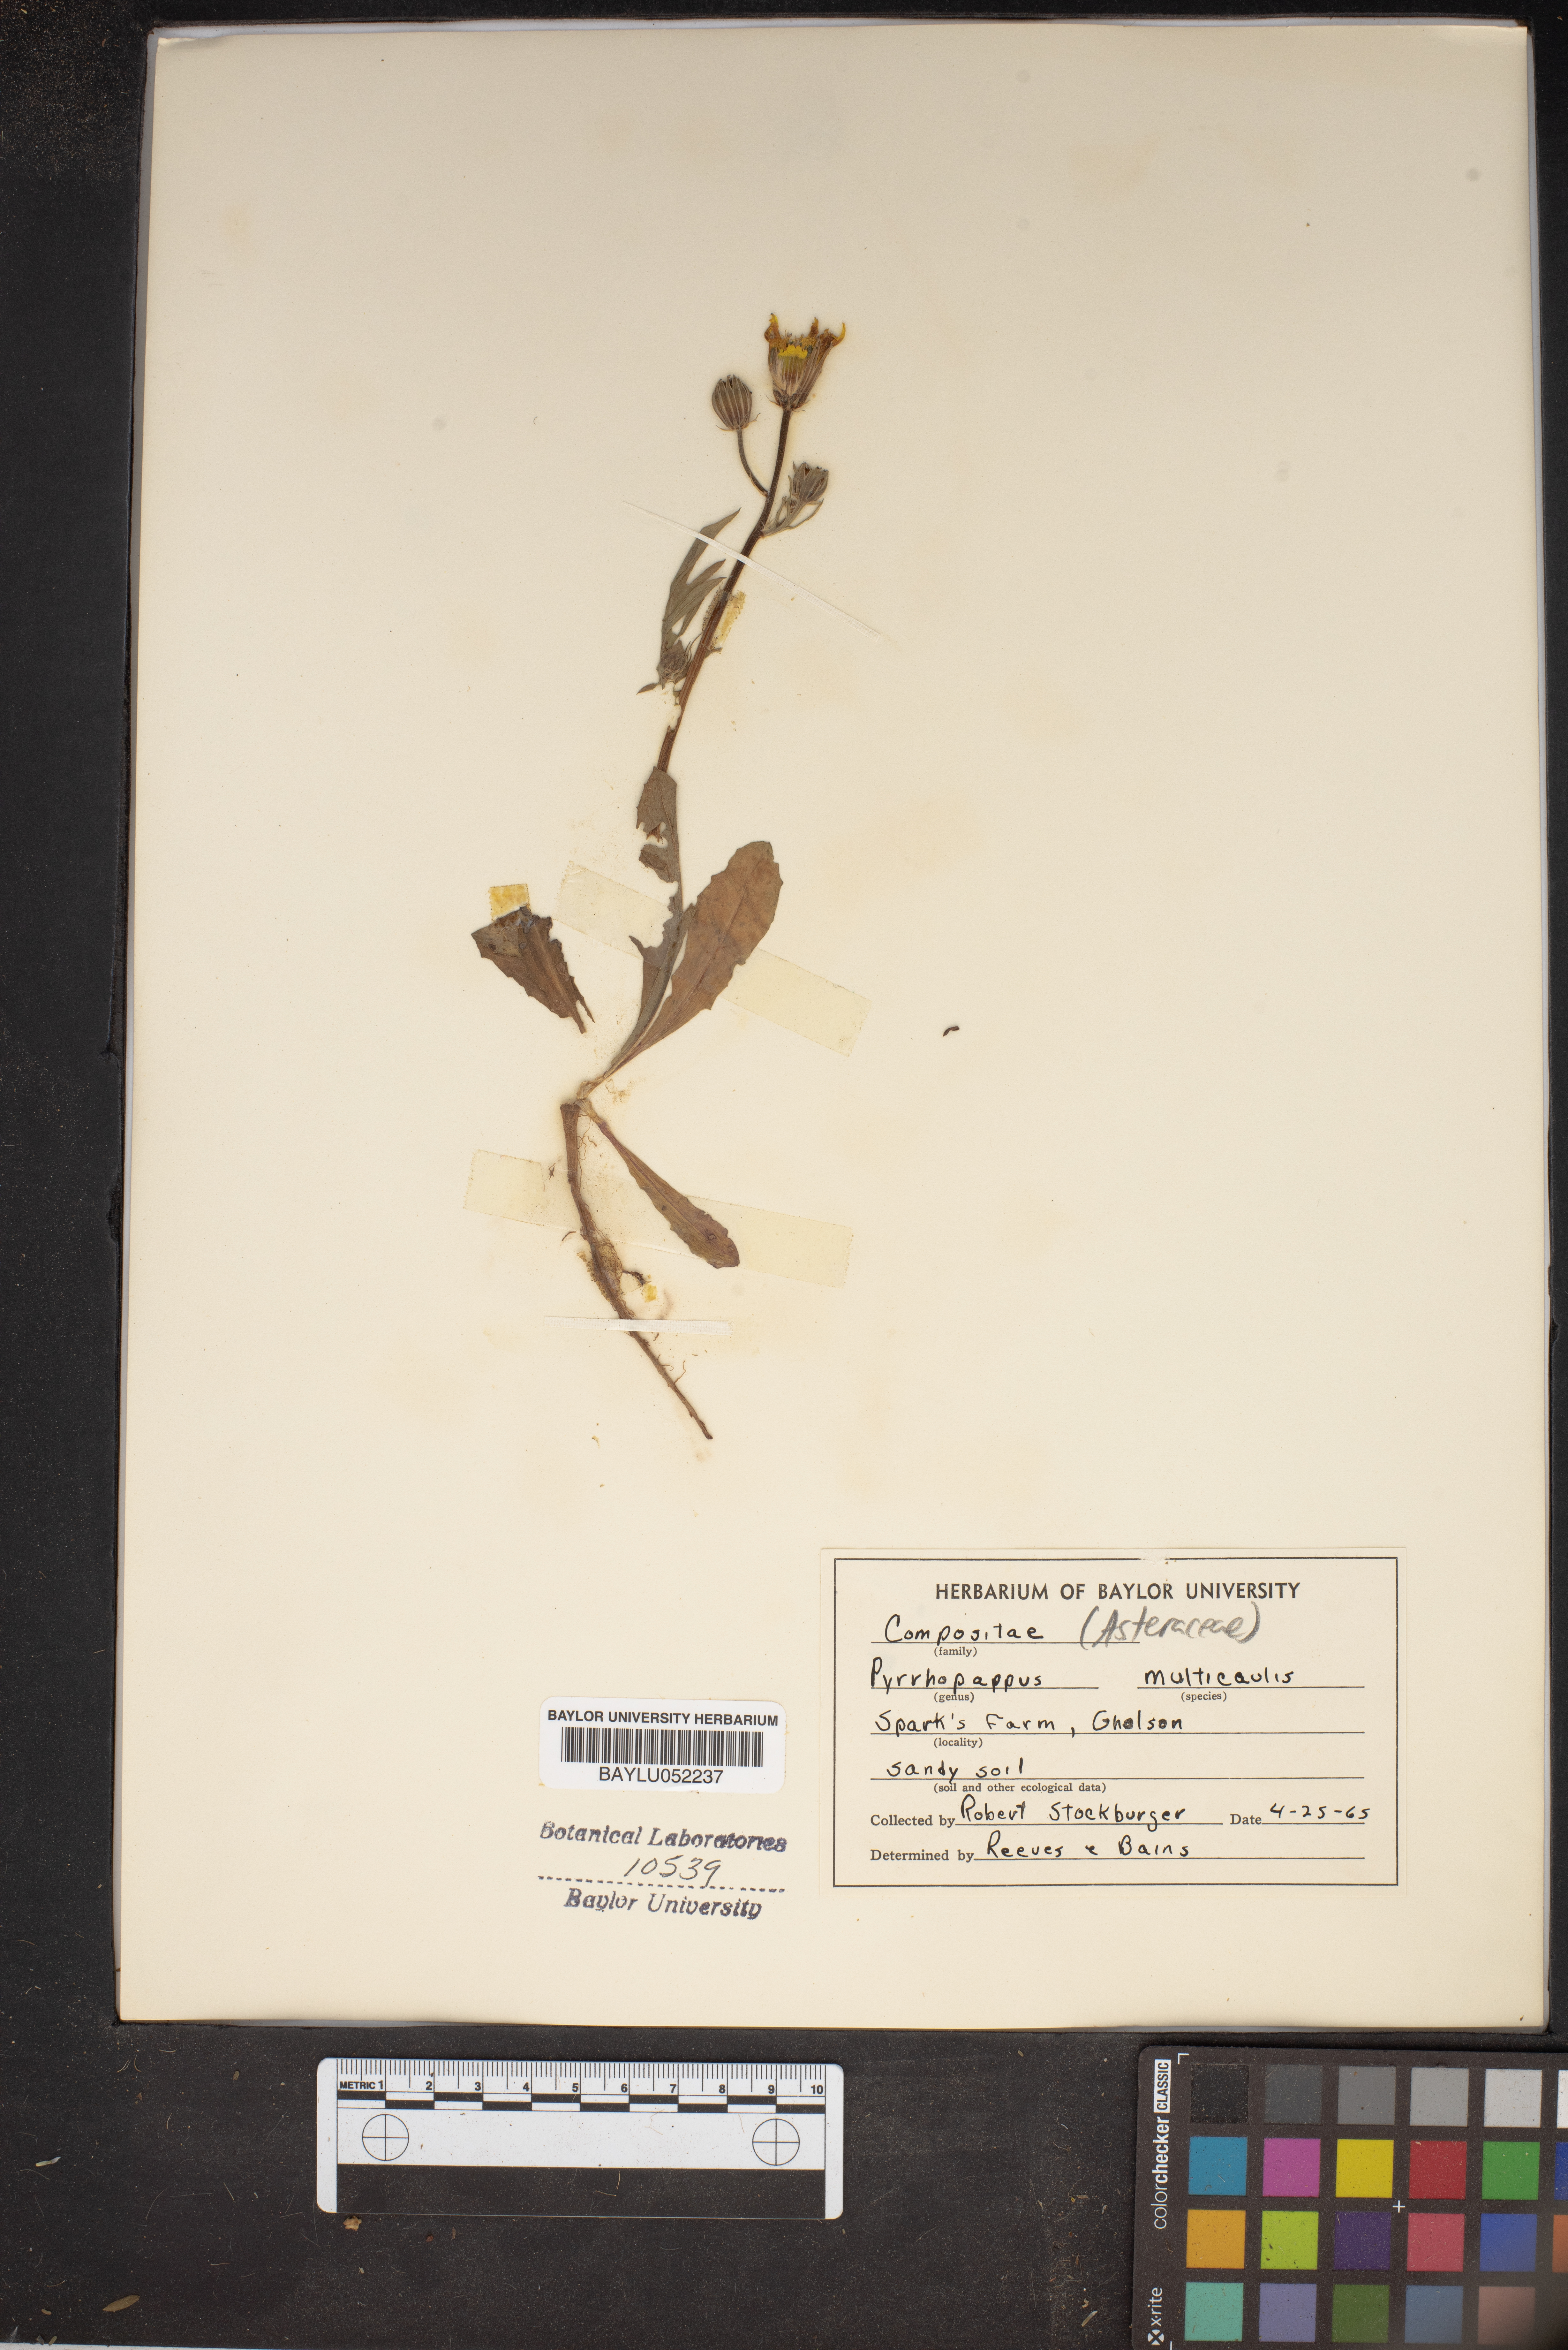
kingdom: Plantae
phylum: Tracheophyta
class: Magnoliopsida
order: Asterales
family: Asteraceae
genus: Pyrrhopappus
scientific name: Pyrrhopappus pauciflorus
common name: Texas false dandelion
